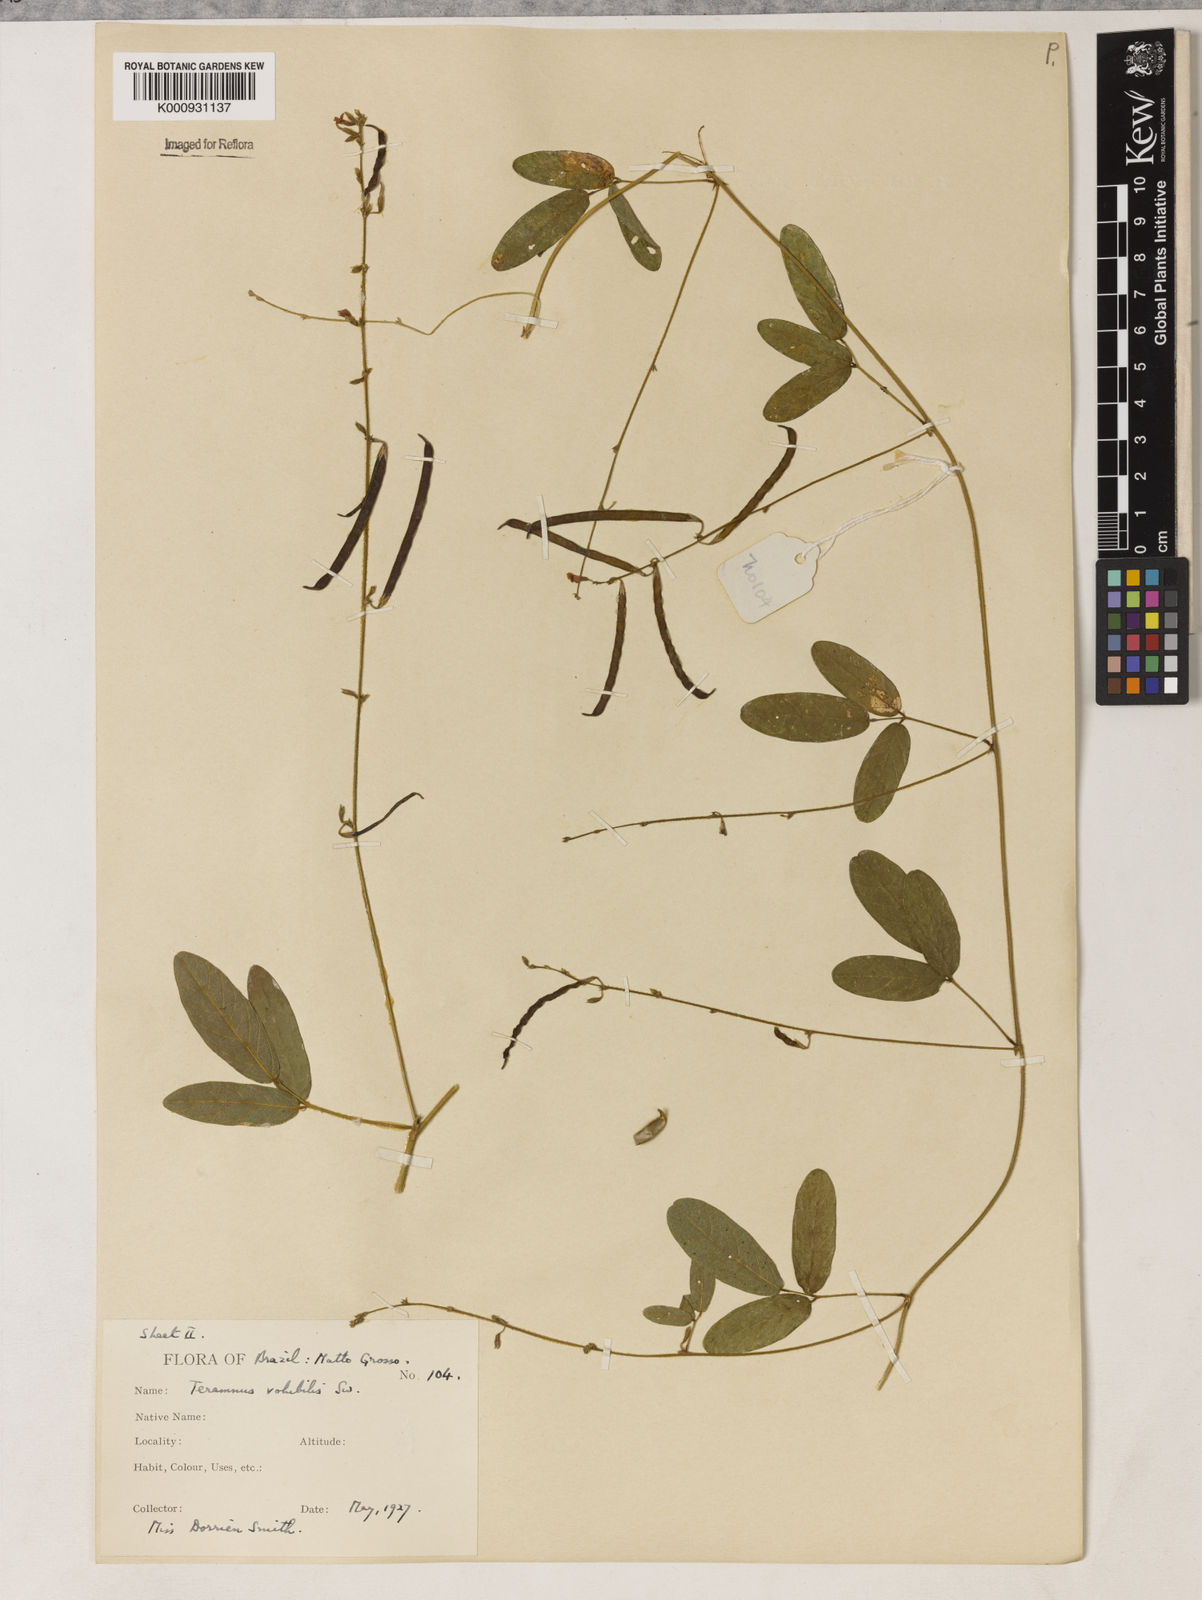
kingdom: Plantae
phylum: Tracheophyta
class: Magnoliopsida
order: Fabales
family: Fabaceae
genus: Teramnus
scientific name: Teramnus
